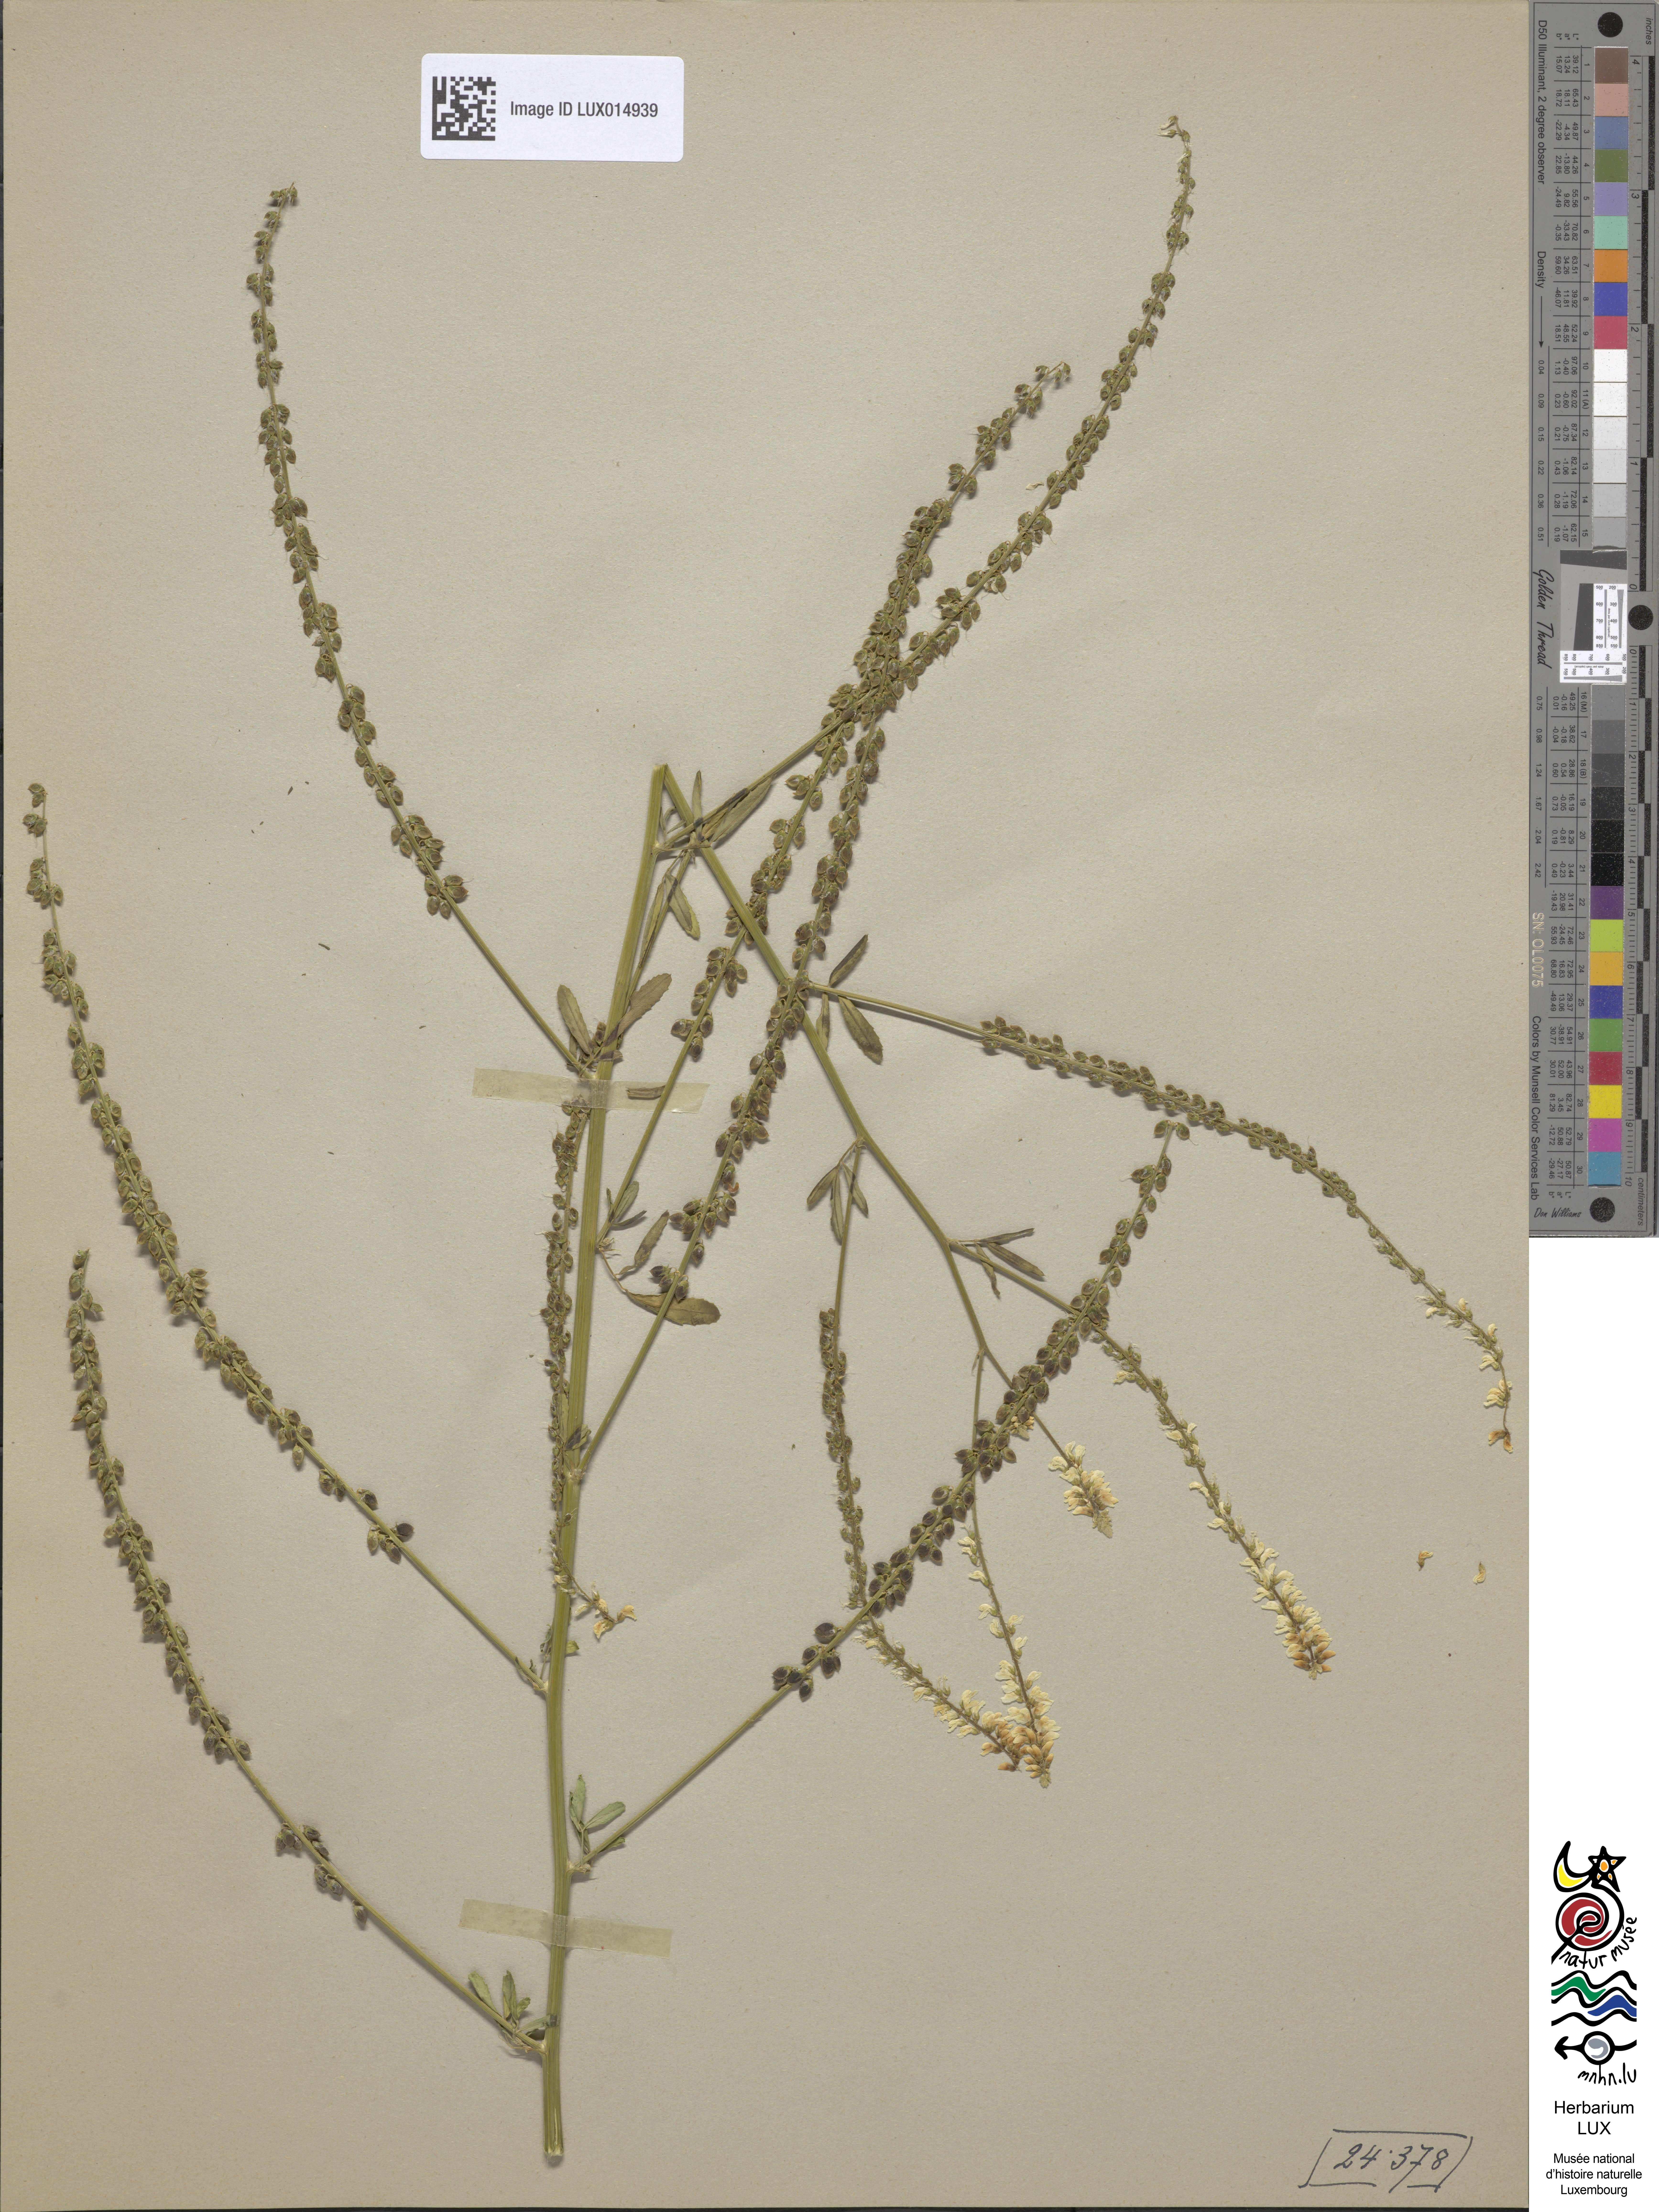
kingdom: Plantae
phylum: Tracheophyta
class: Magnoliopsida
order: Fabales
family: Fabaceae
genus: Melilotus
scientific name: Melilotus albus
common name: White melilot
